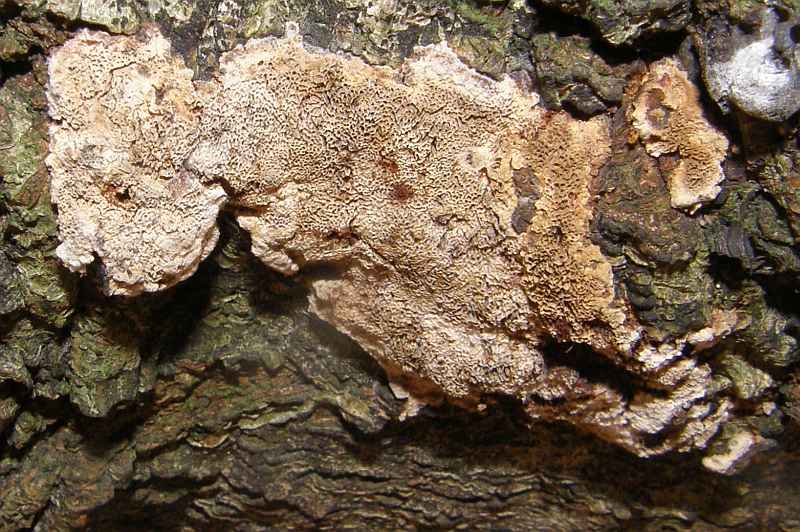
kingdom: Fungi
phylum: Basidiomycota
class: Agaricomycetes
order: Hymenochaetales
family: Hymenochaetaceae
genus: Mensularia
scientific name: Mensularia nodulosa
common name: bøge-spejlporesvamp
